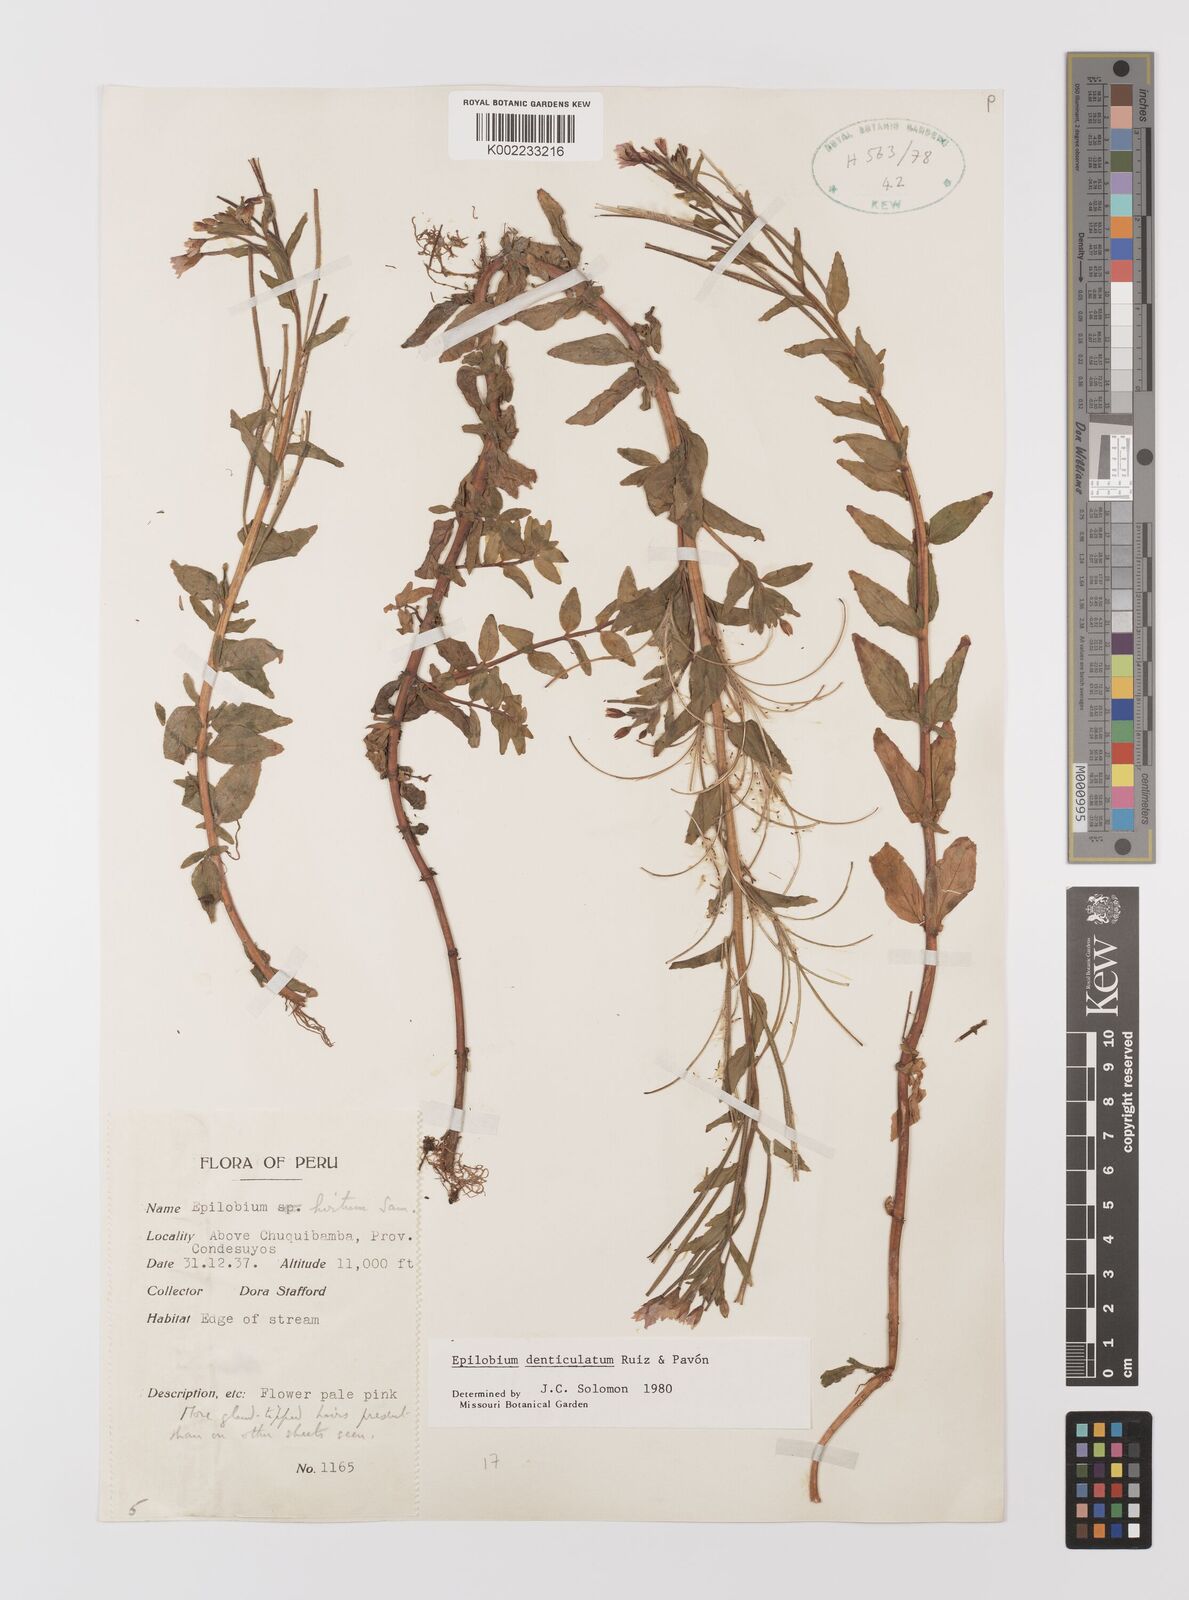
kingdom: Plantae
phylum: Tracheophyta
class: Magnoliopsida
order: Myrtales
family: Onagraceae
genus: Epilobium
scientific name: Epilobium denticulatum
